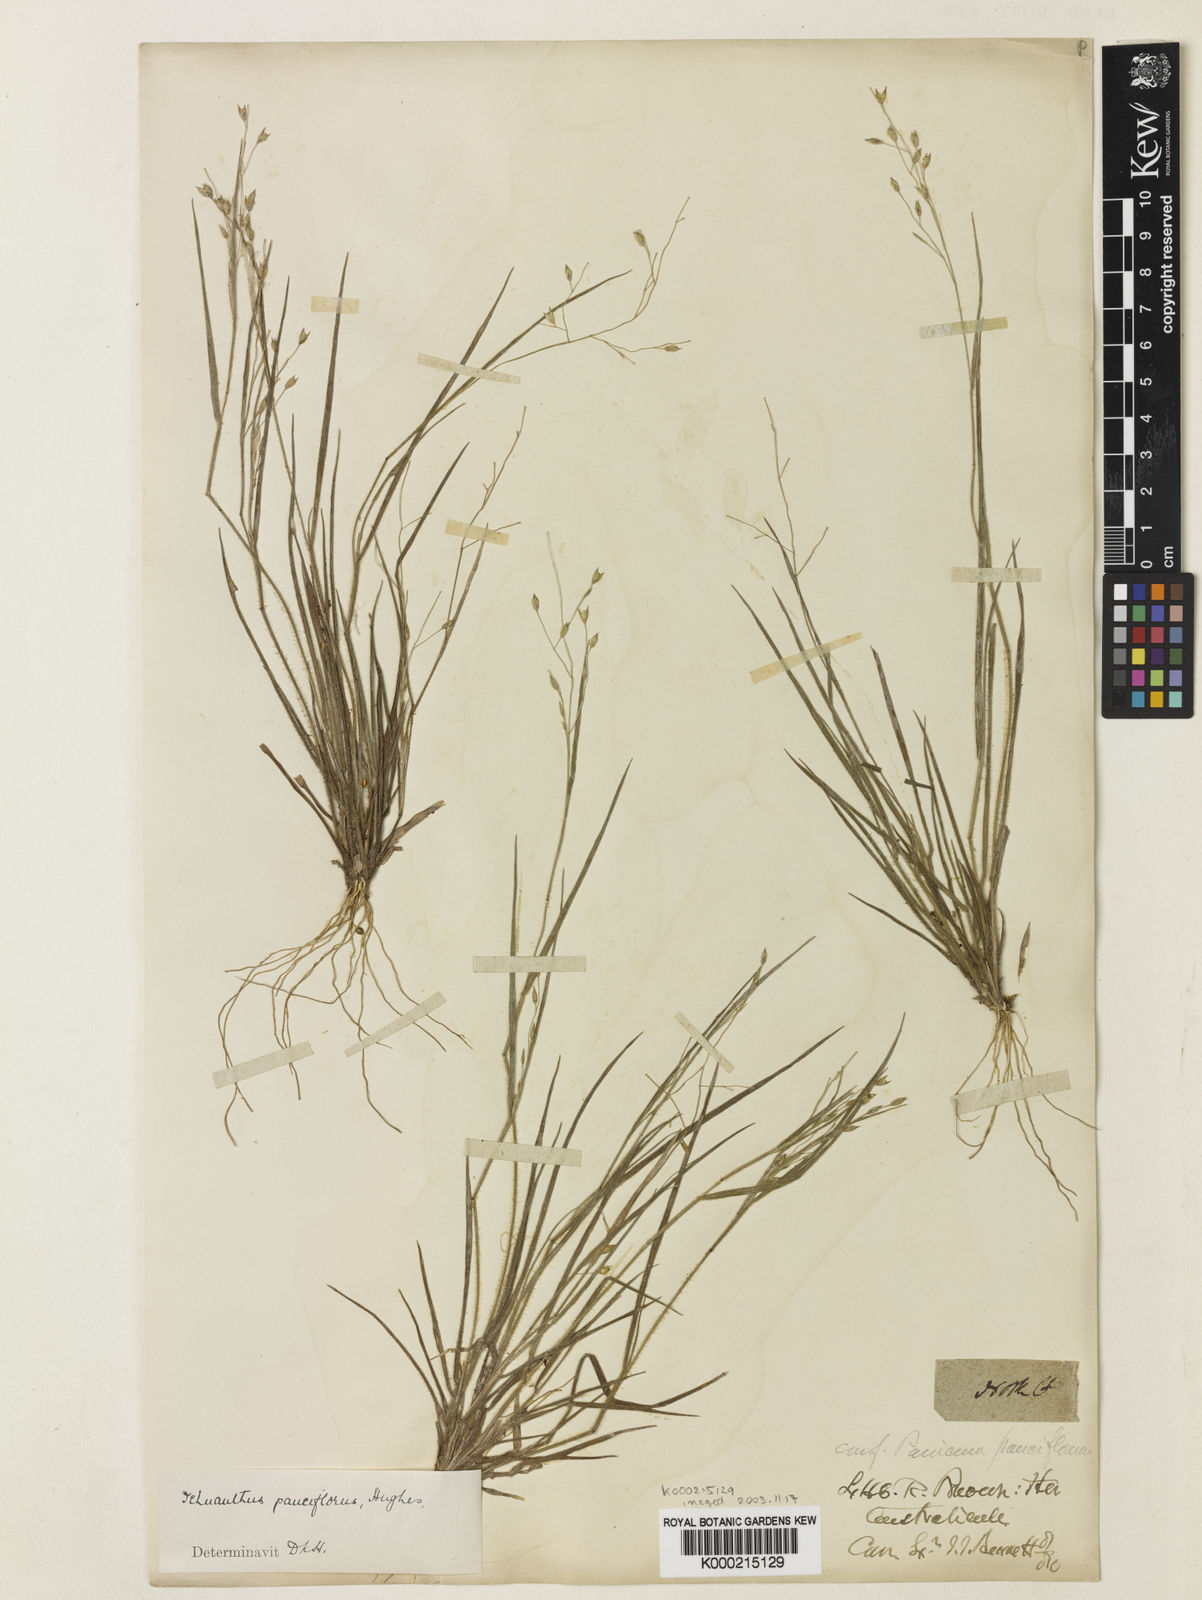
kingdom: Plantae
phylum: Tracheophyta
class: Liliopsida
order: Poales
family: Poaceae
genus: Panicum
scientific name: Panicum pauciflorum
